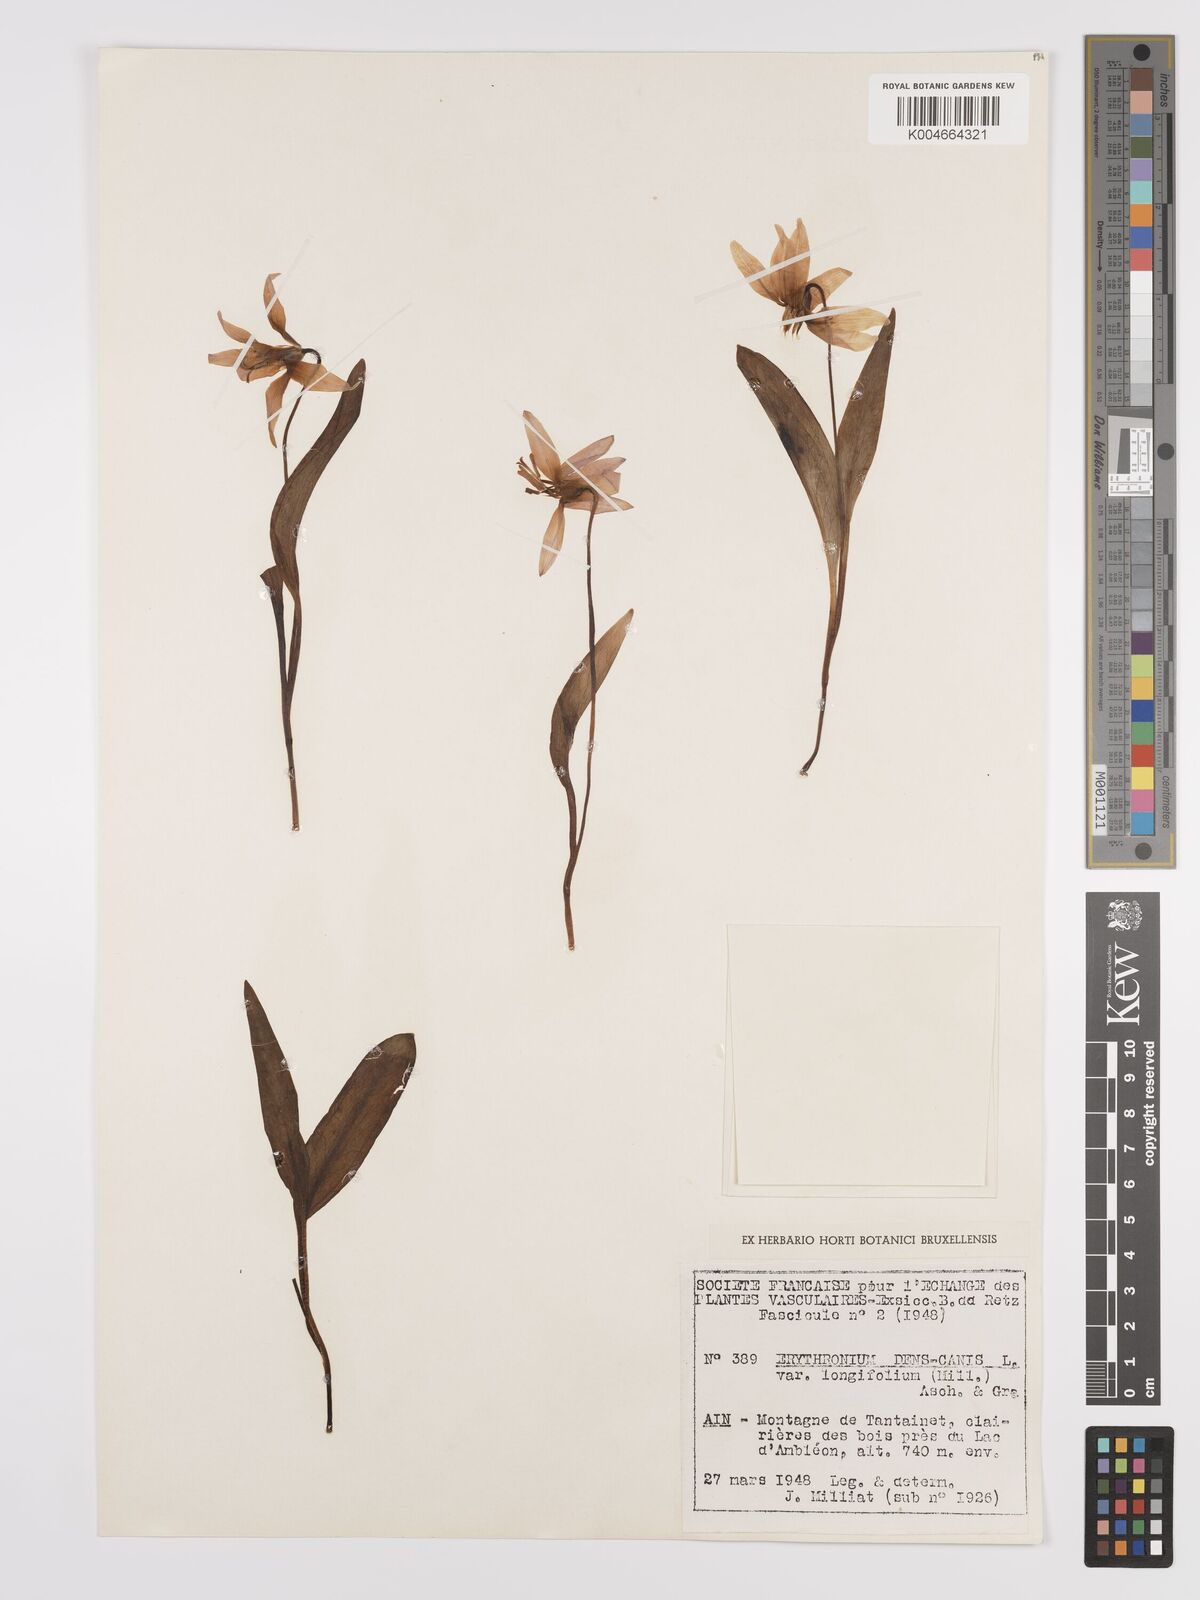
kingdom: Plantae
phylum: Tracheophyta
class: Liliopsida
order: Liliales
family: Liliaceae
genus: Erythronium
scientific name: Erythronium dens-canis
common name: Dog's-tooth-violet
